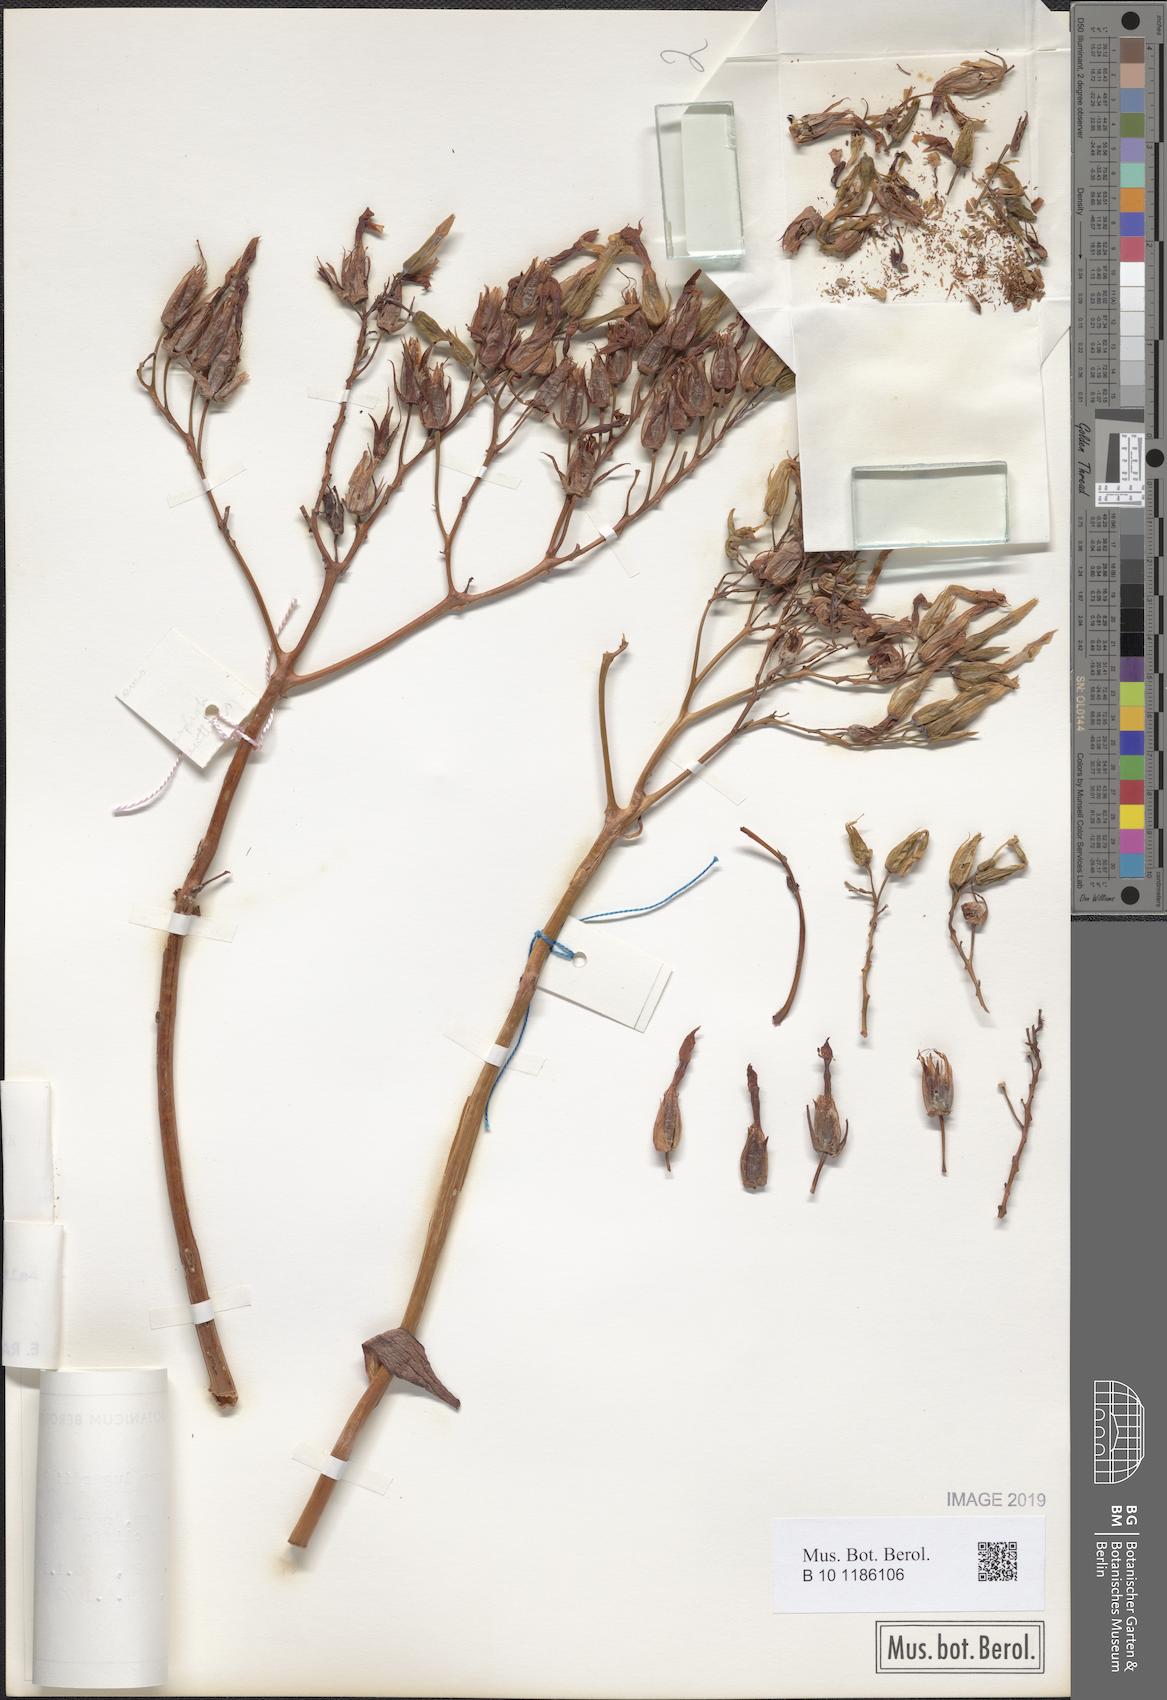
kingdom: Plantae
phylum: Tracheophyta
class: Magnoliopsida
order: Saxifragales
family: Crassulaceae
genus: Kalanchoe
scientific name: Kalanchoe marmorata
